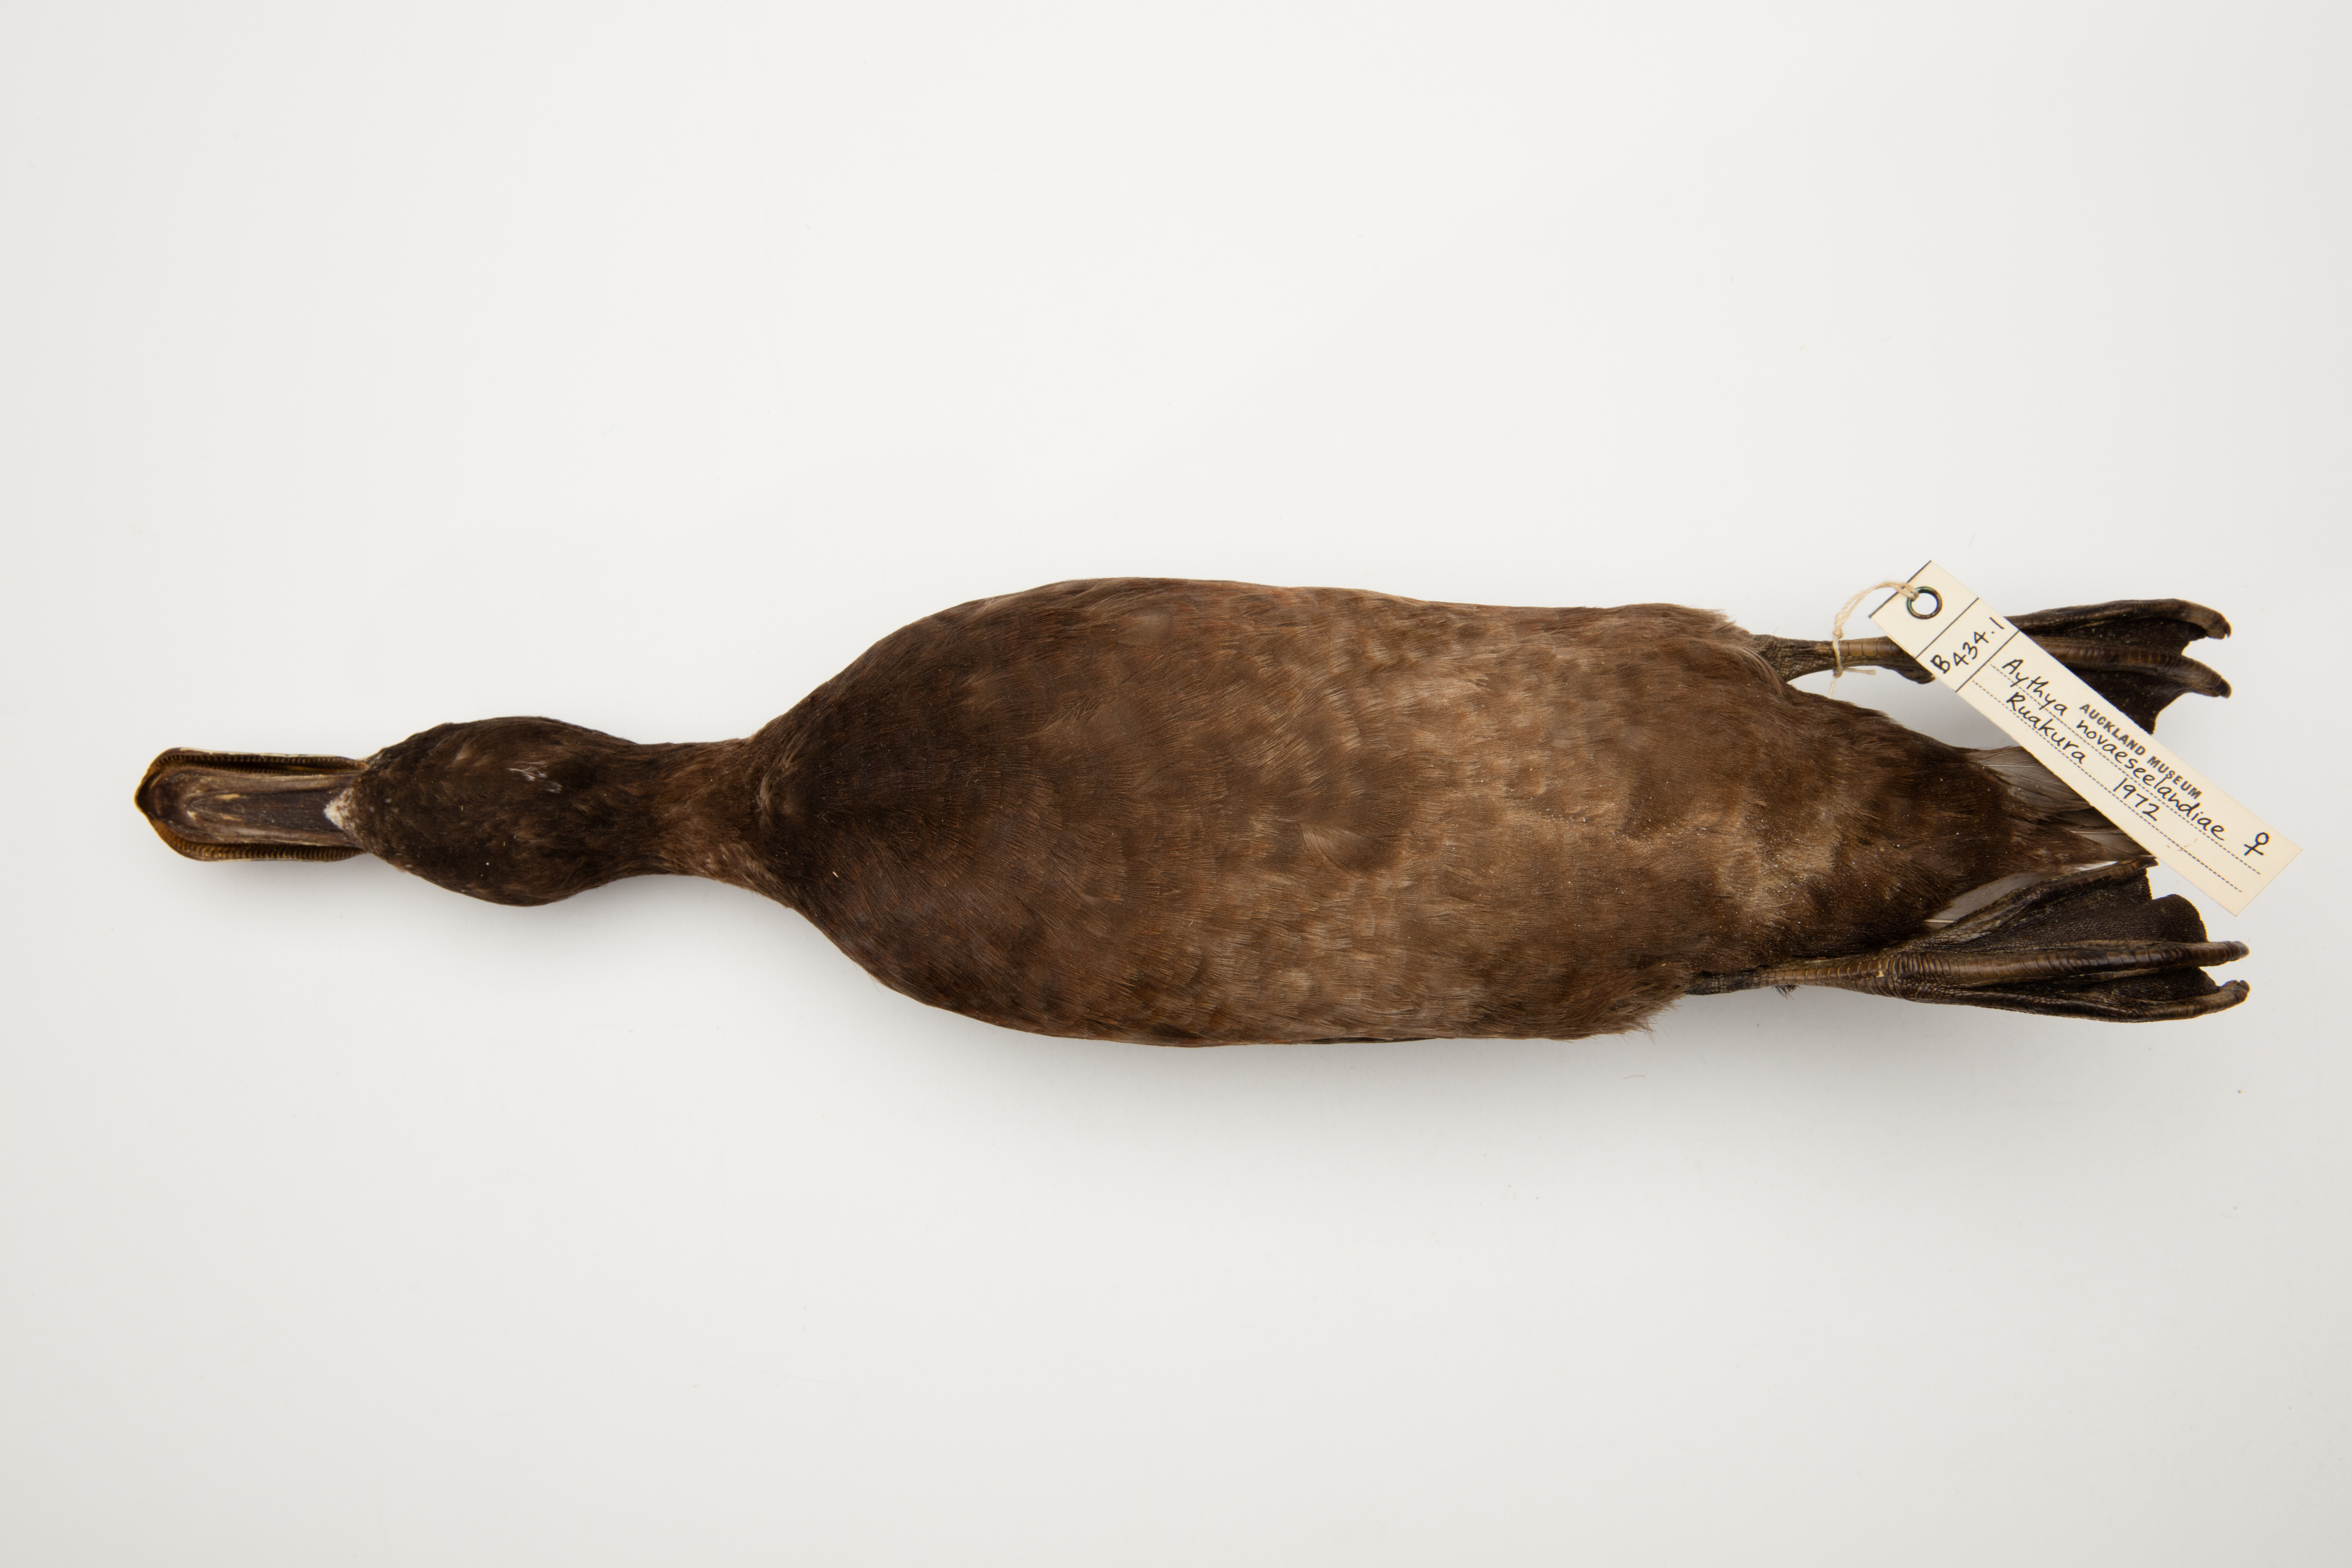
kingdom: Animalia
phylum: Chordata
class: Aves
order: Anseriformes
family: Anatidae
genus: Aythya
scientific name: Aythya novaeseelandiae
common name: New zealand scaup
